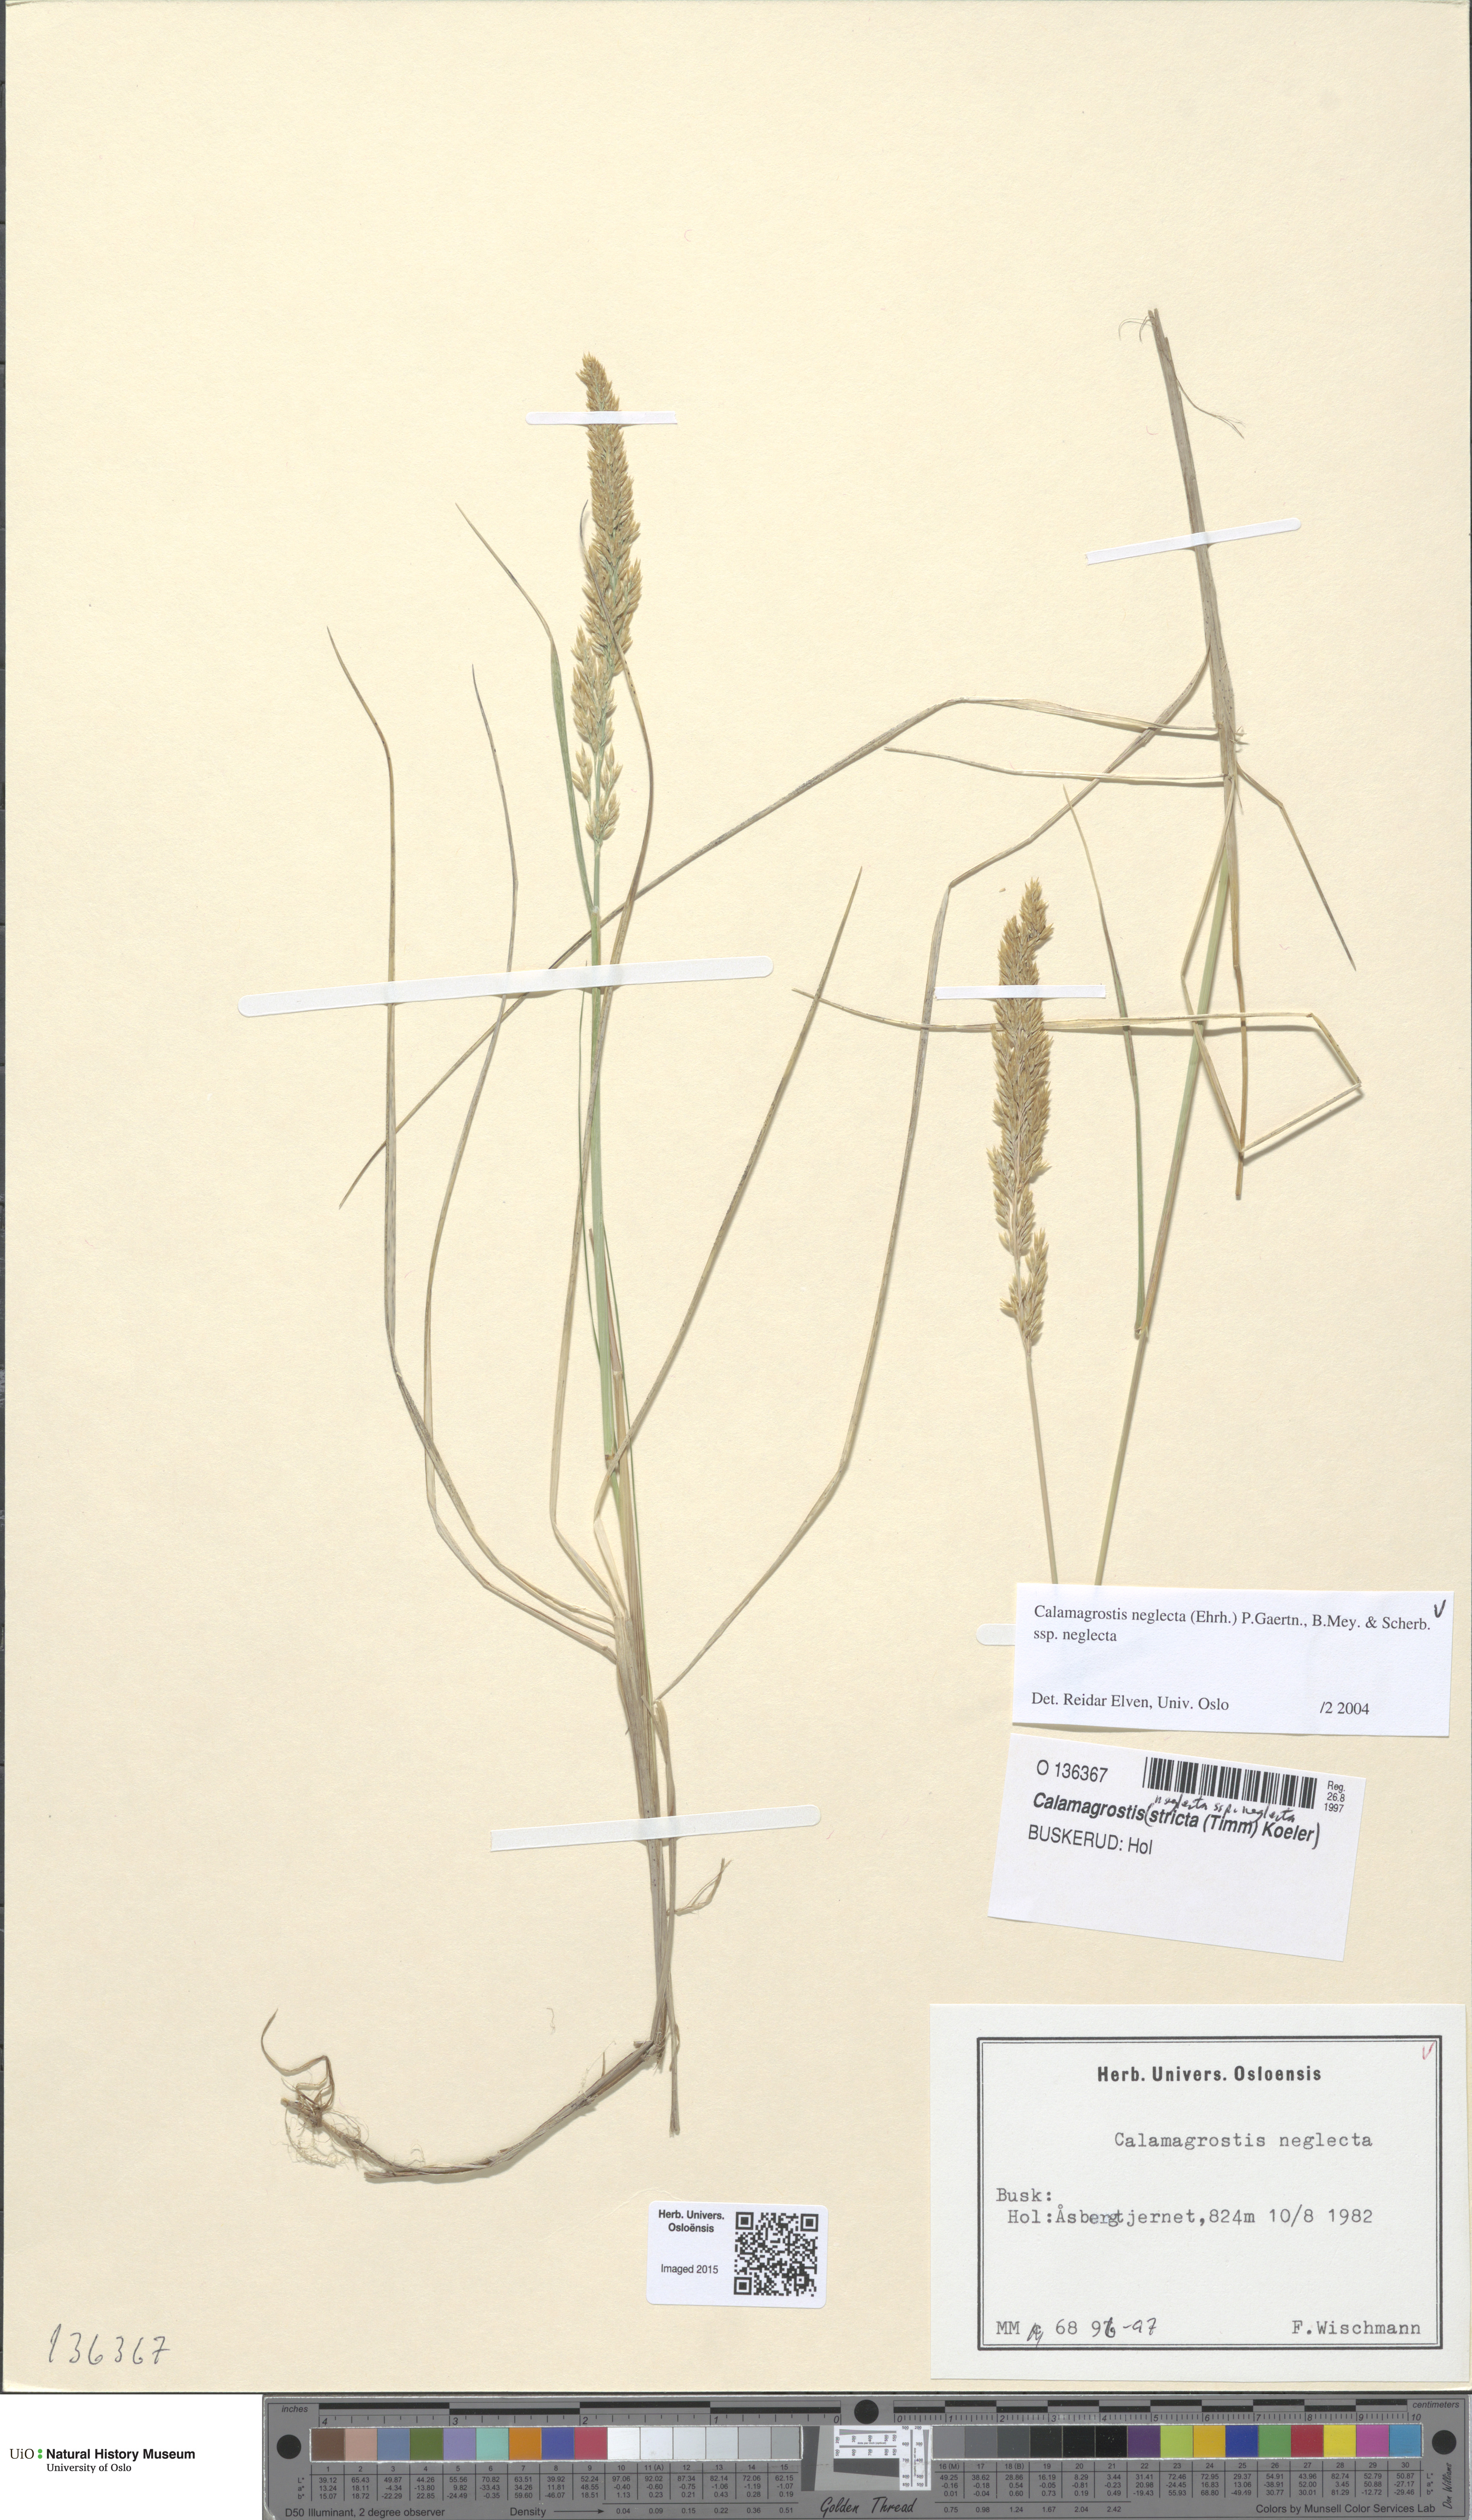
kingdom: Plantae
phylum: Tracheophyta
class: Liliopsida
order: Poales
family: Poaceae
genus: Achnatherum
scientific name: Achnatherum calamagrostis
